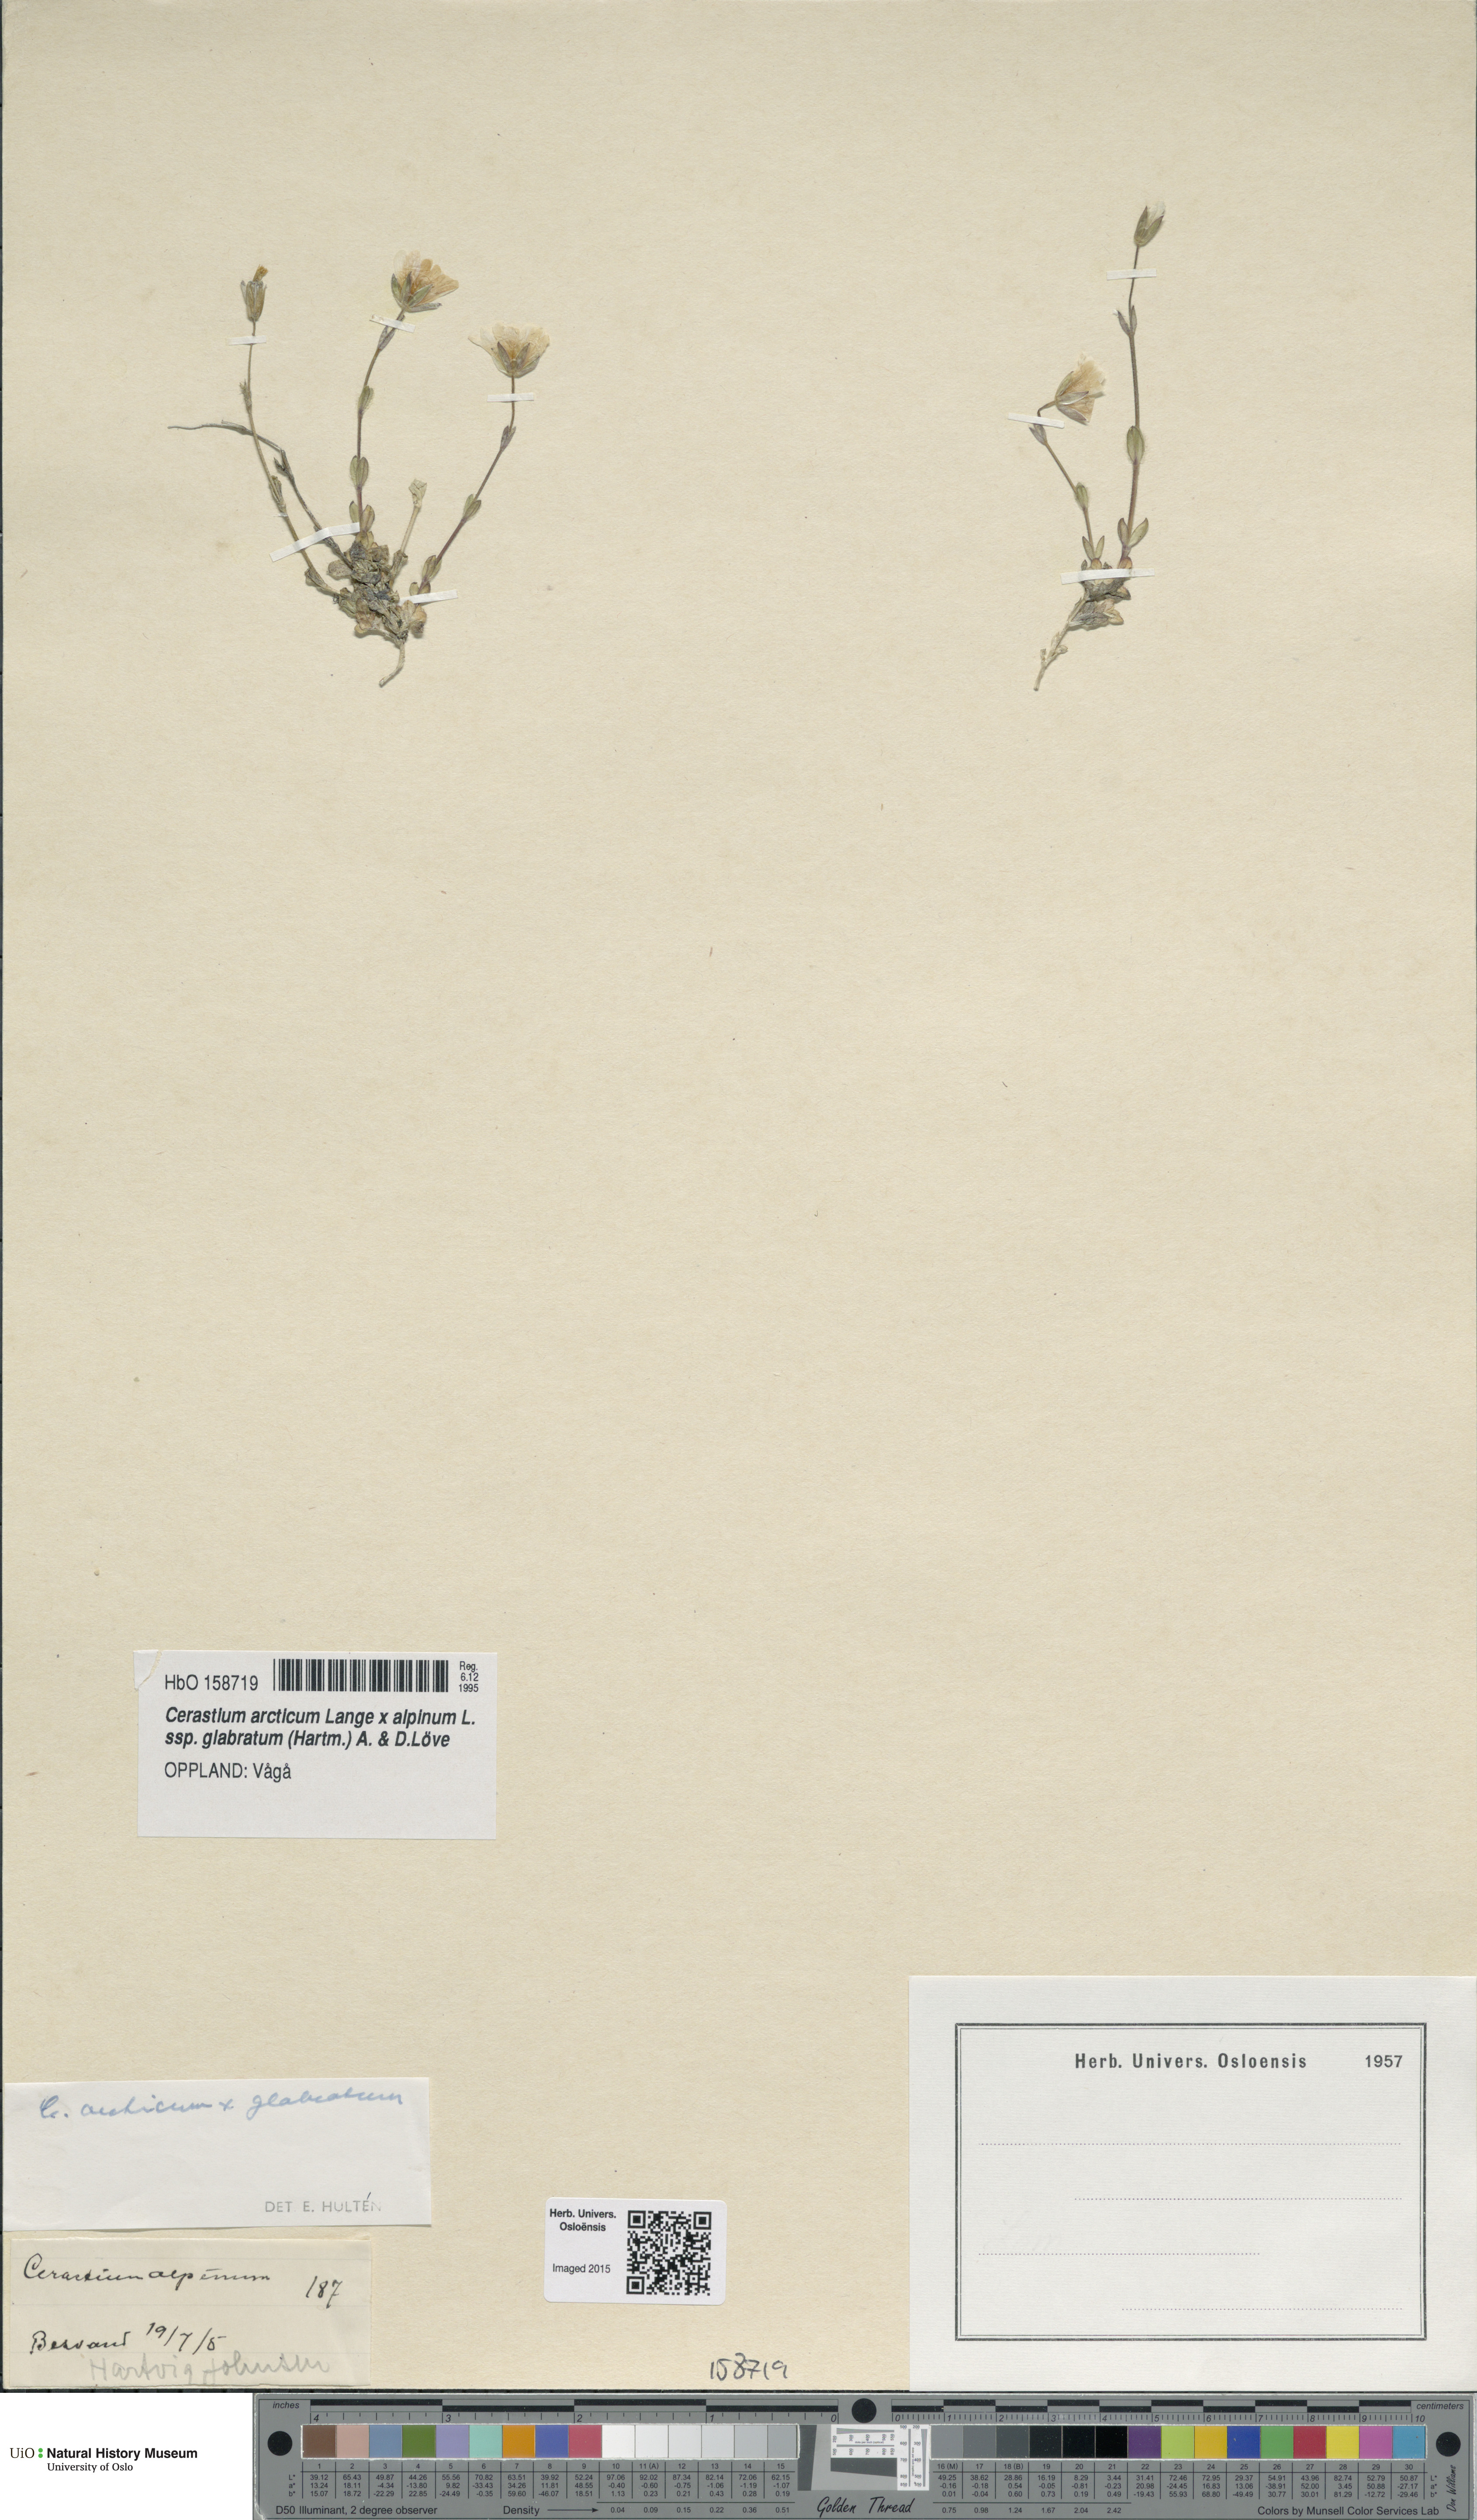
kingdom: Plantae
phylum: Tracheophyta
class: Magnoliopsida
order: Caryophyllales
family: Caryophyllaceae
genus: Cerastium
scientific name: Cerastium
